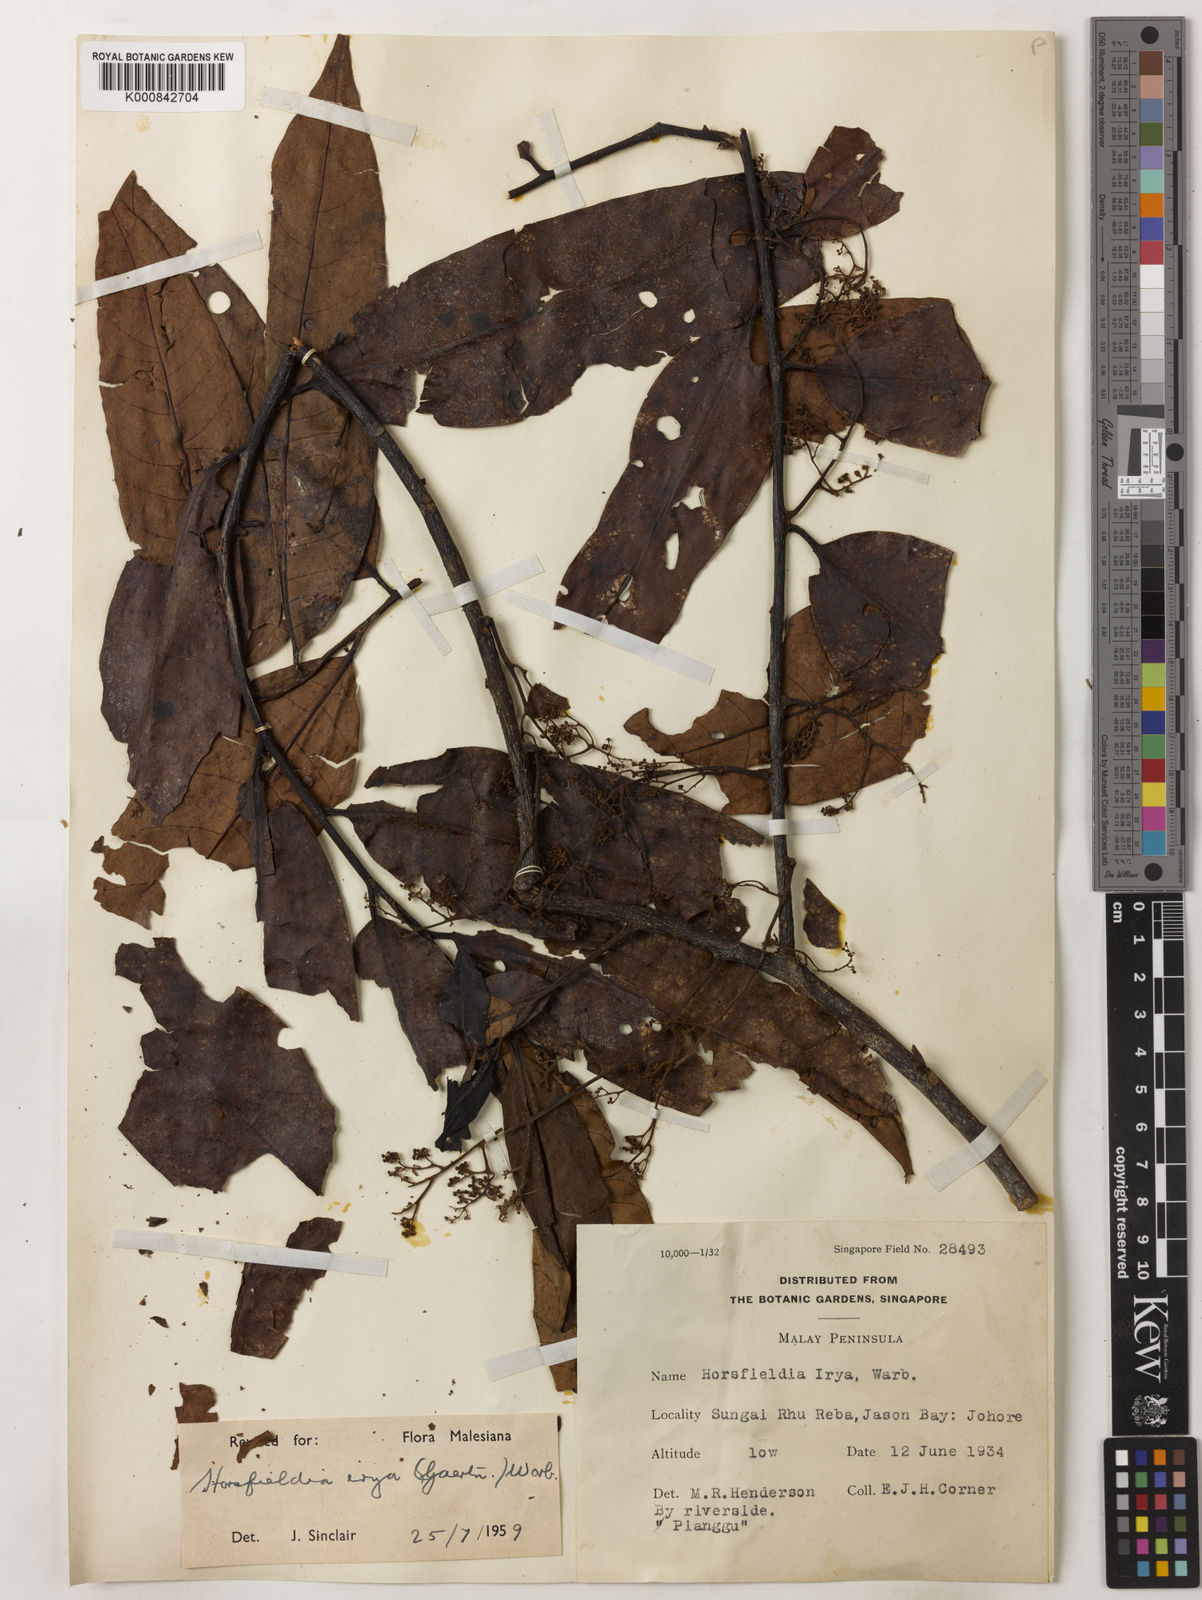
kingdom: Plantae
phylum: Tracheophyta
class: Magnoliopsida
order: Magnoliales
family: Myristicaceae
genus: Horsfieldia
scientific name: Horsfieldia irya
